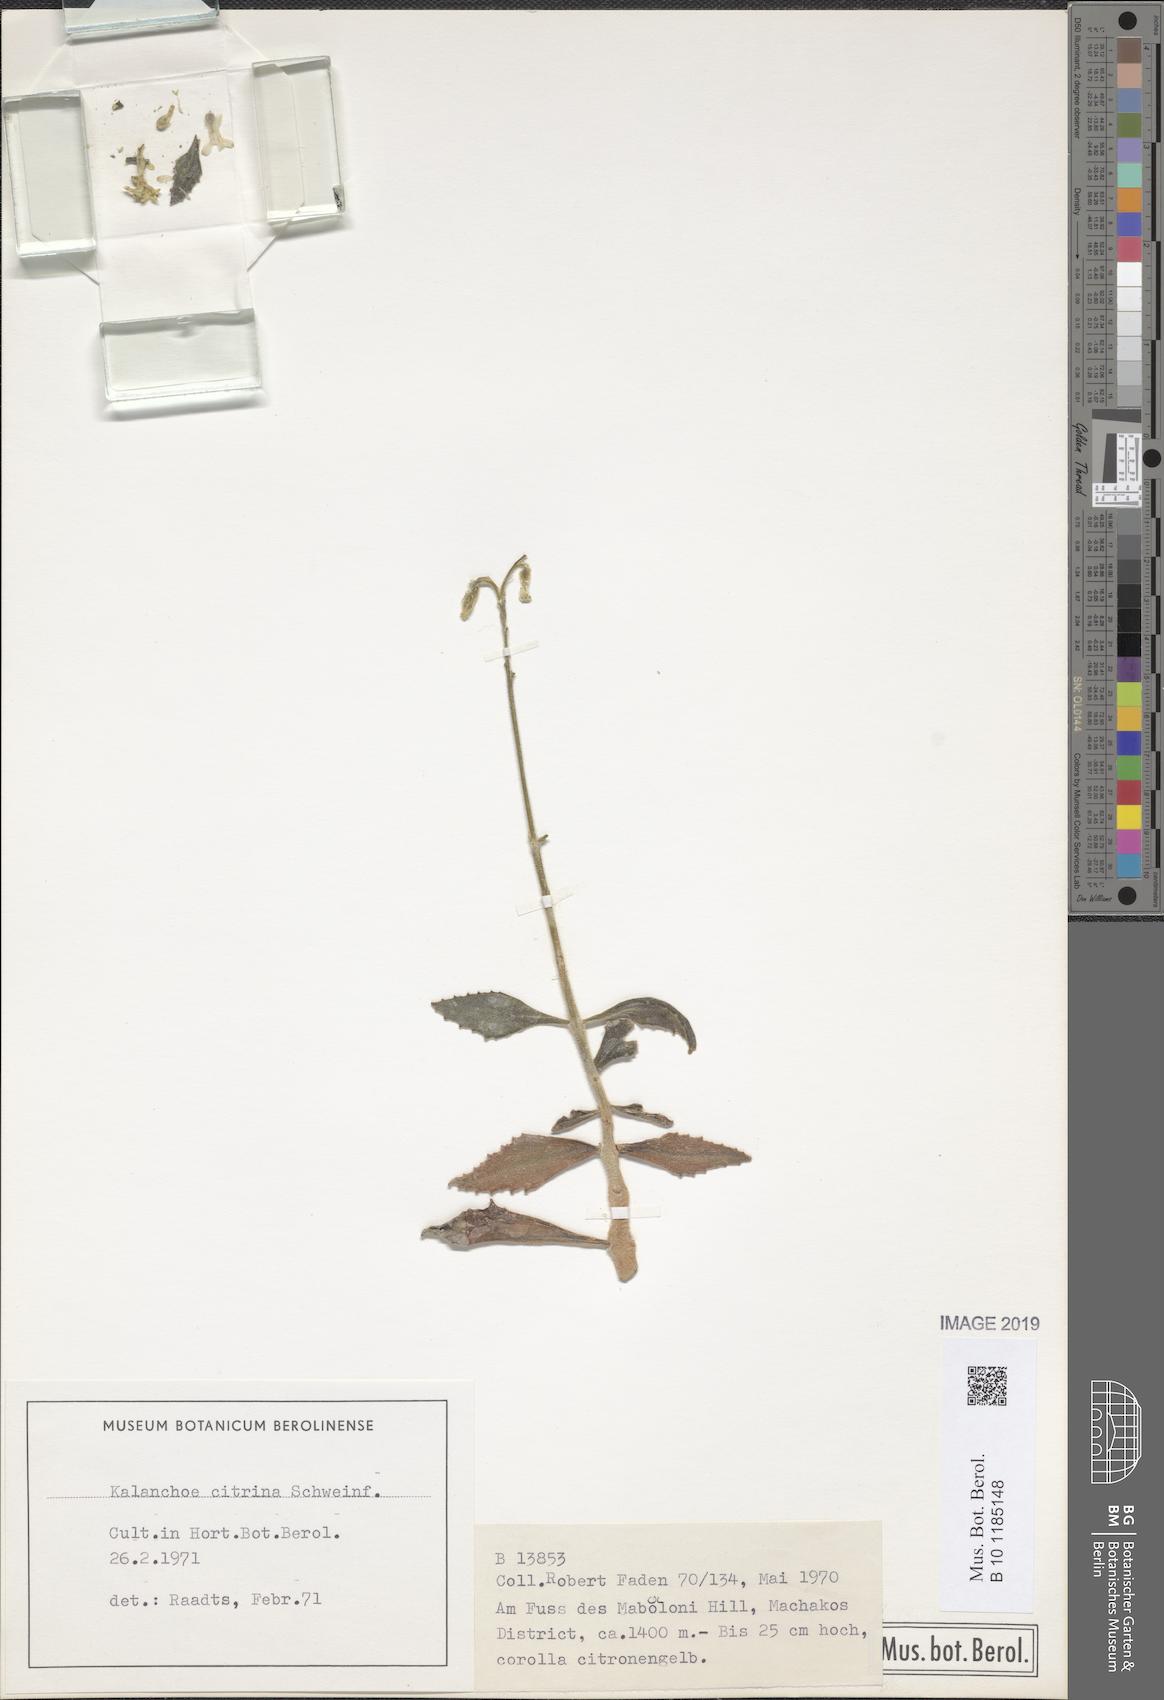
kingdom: Plantae
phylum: Tracheophyta
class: Magnoliopsida
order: Saxifragales
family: Crassulaceae
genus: Kalanchoe
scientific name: Kalanchoe citrina
